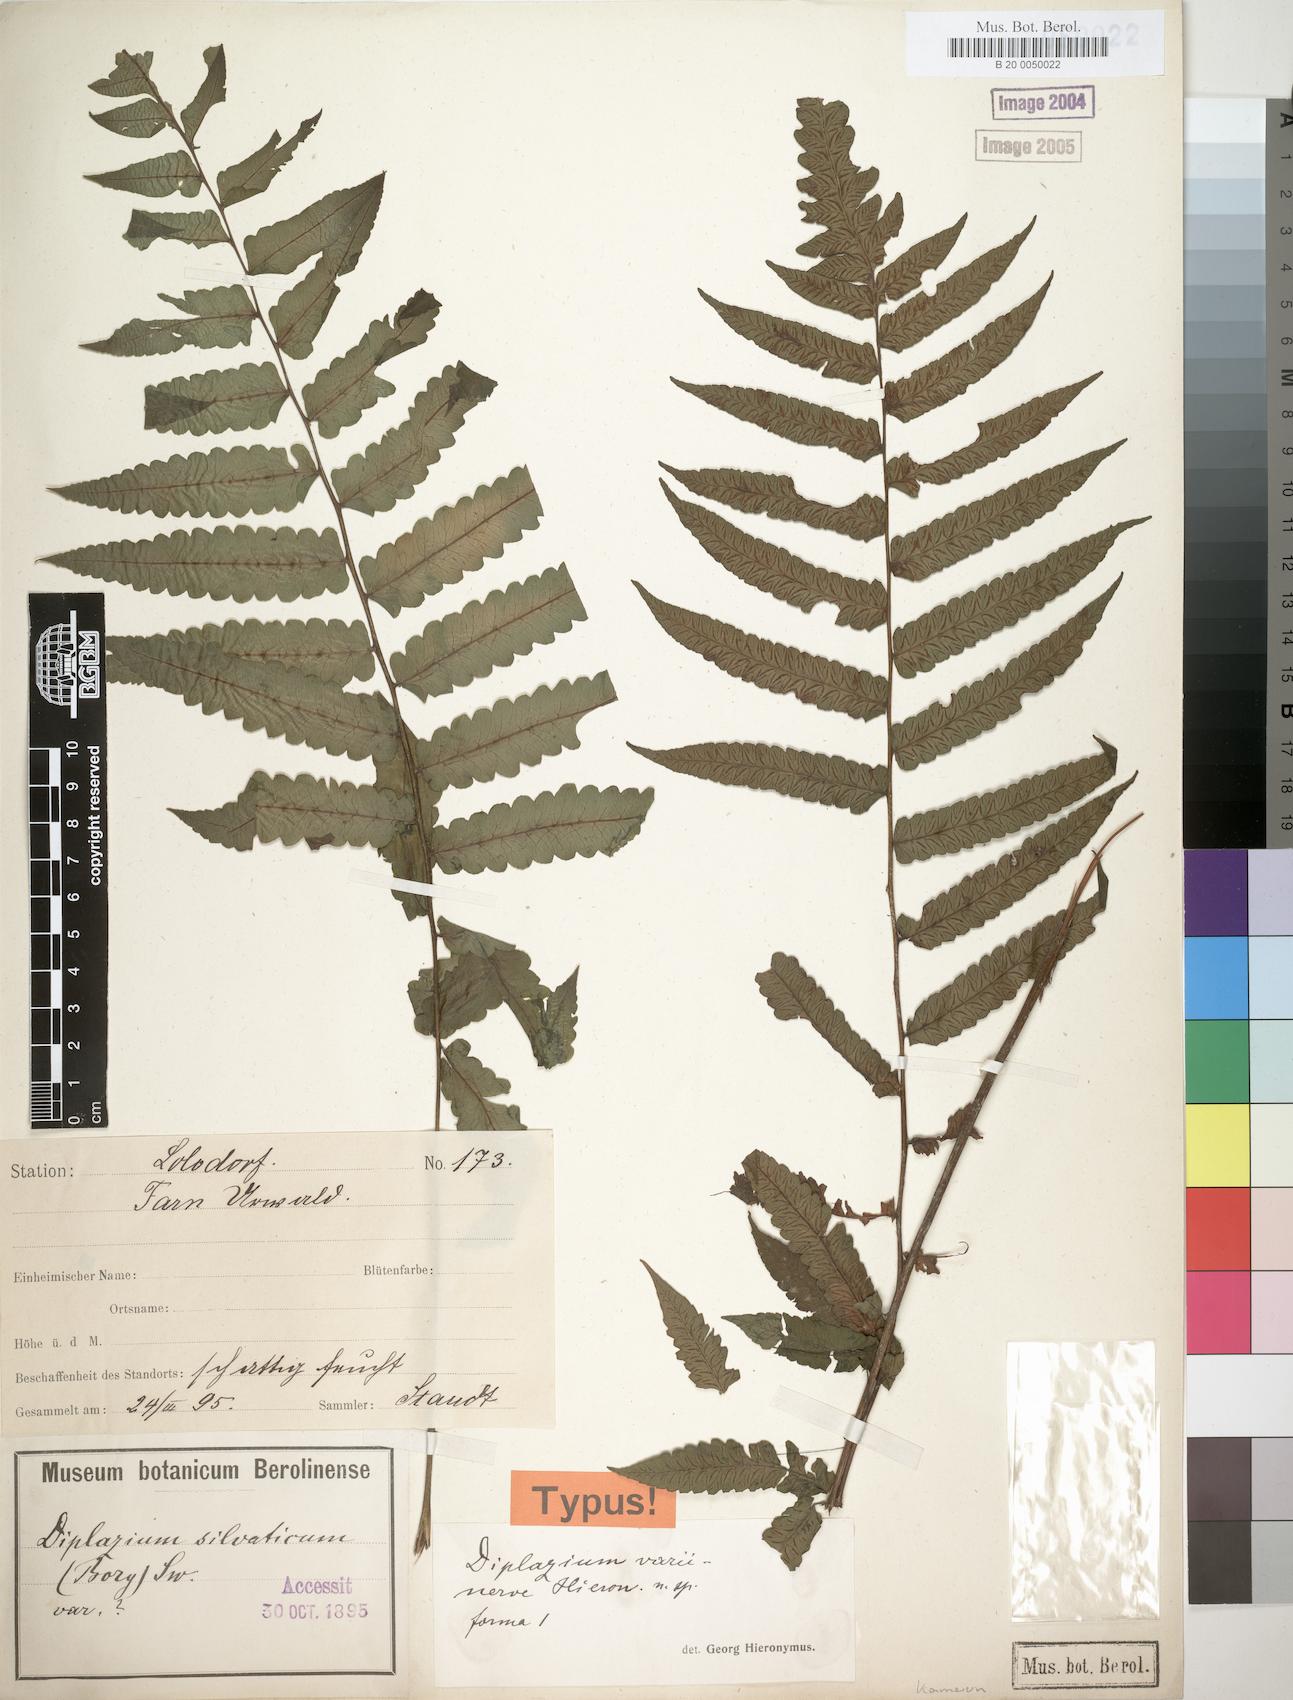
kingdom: Plantae
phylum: Tracheophyta
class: Polypodiopsida
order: Polypodiales
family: Athyriaceae
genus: Diplazium
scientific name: Diplazium welwitschii
